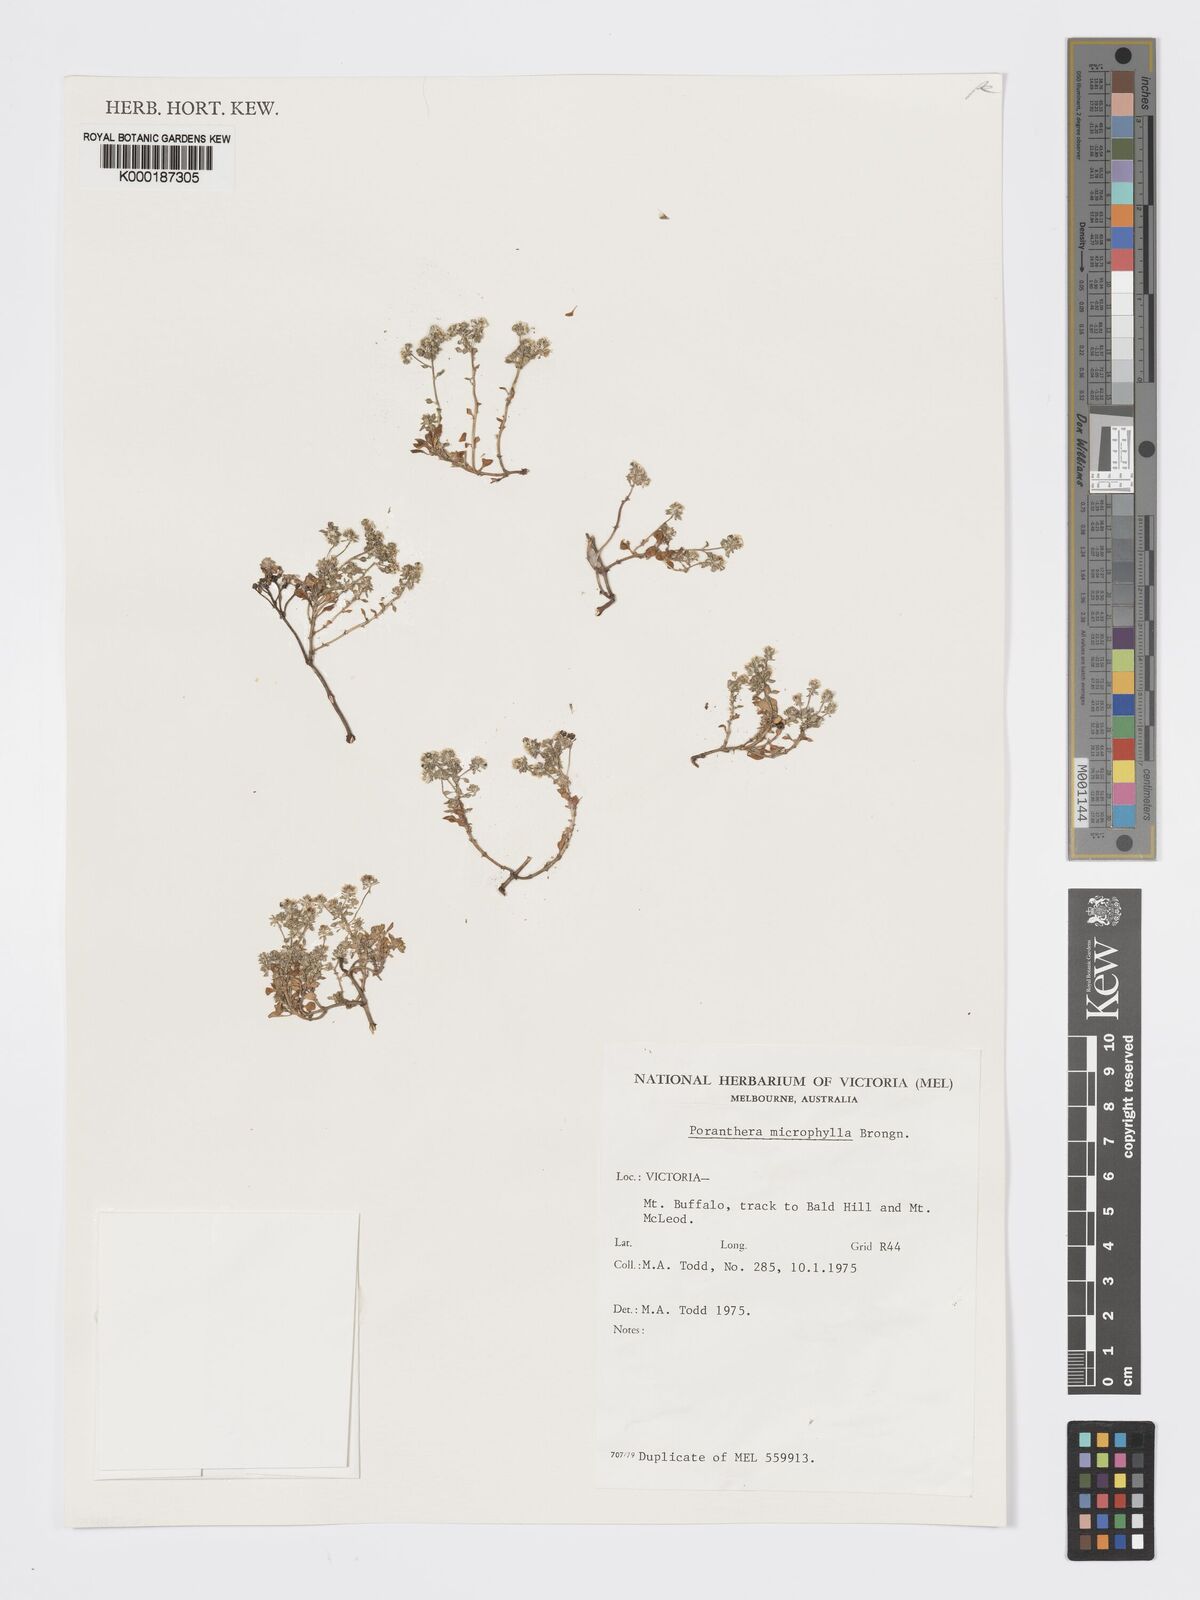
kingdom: Plantae
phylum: Tracheophyta
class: Magnoliopsida
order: Malpighiales
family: Phyllanthaceae
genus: Poranthera
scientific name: Poranthera microphylla
